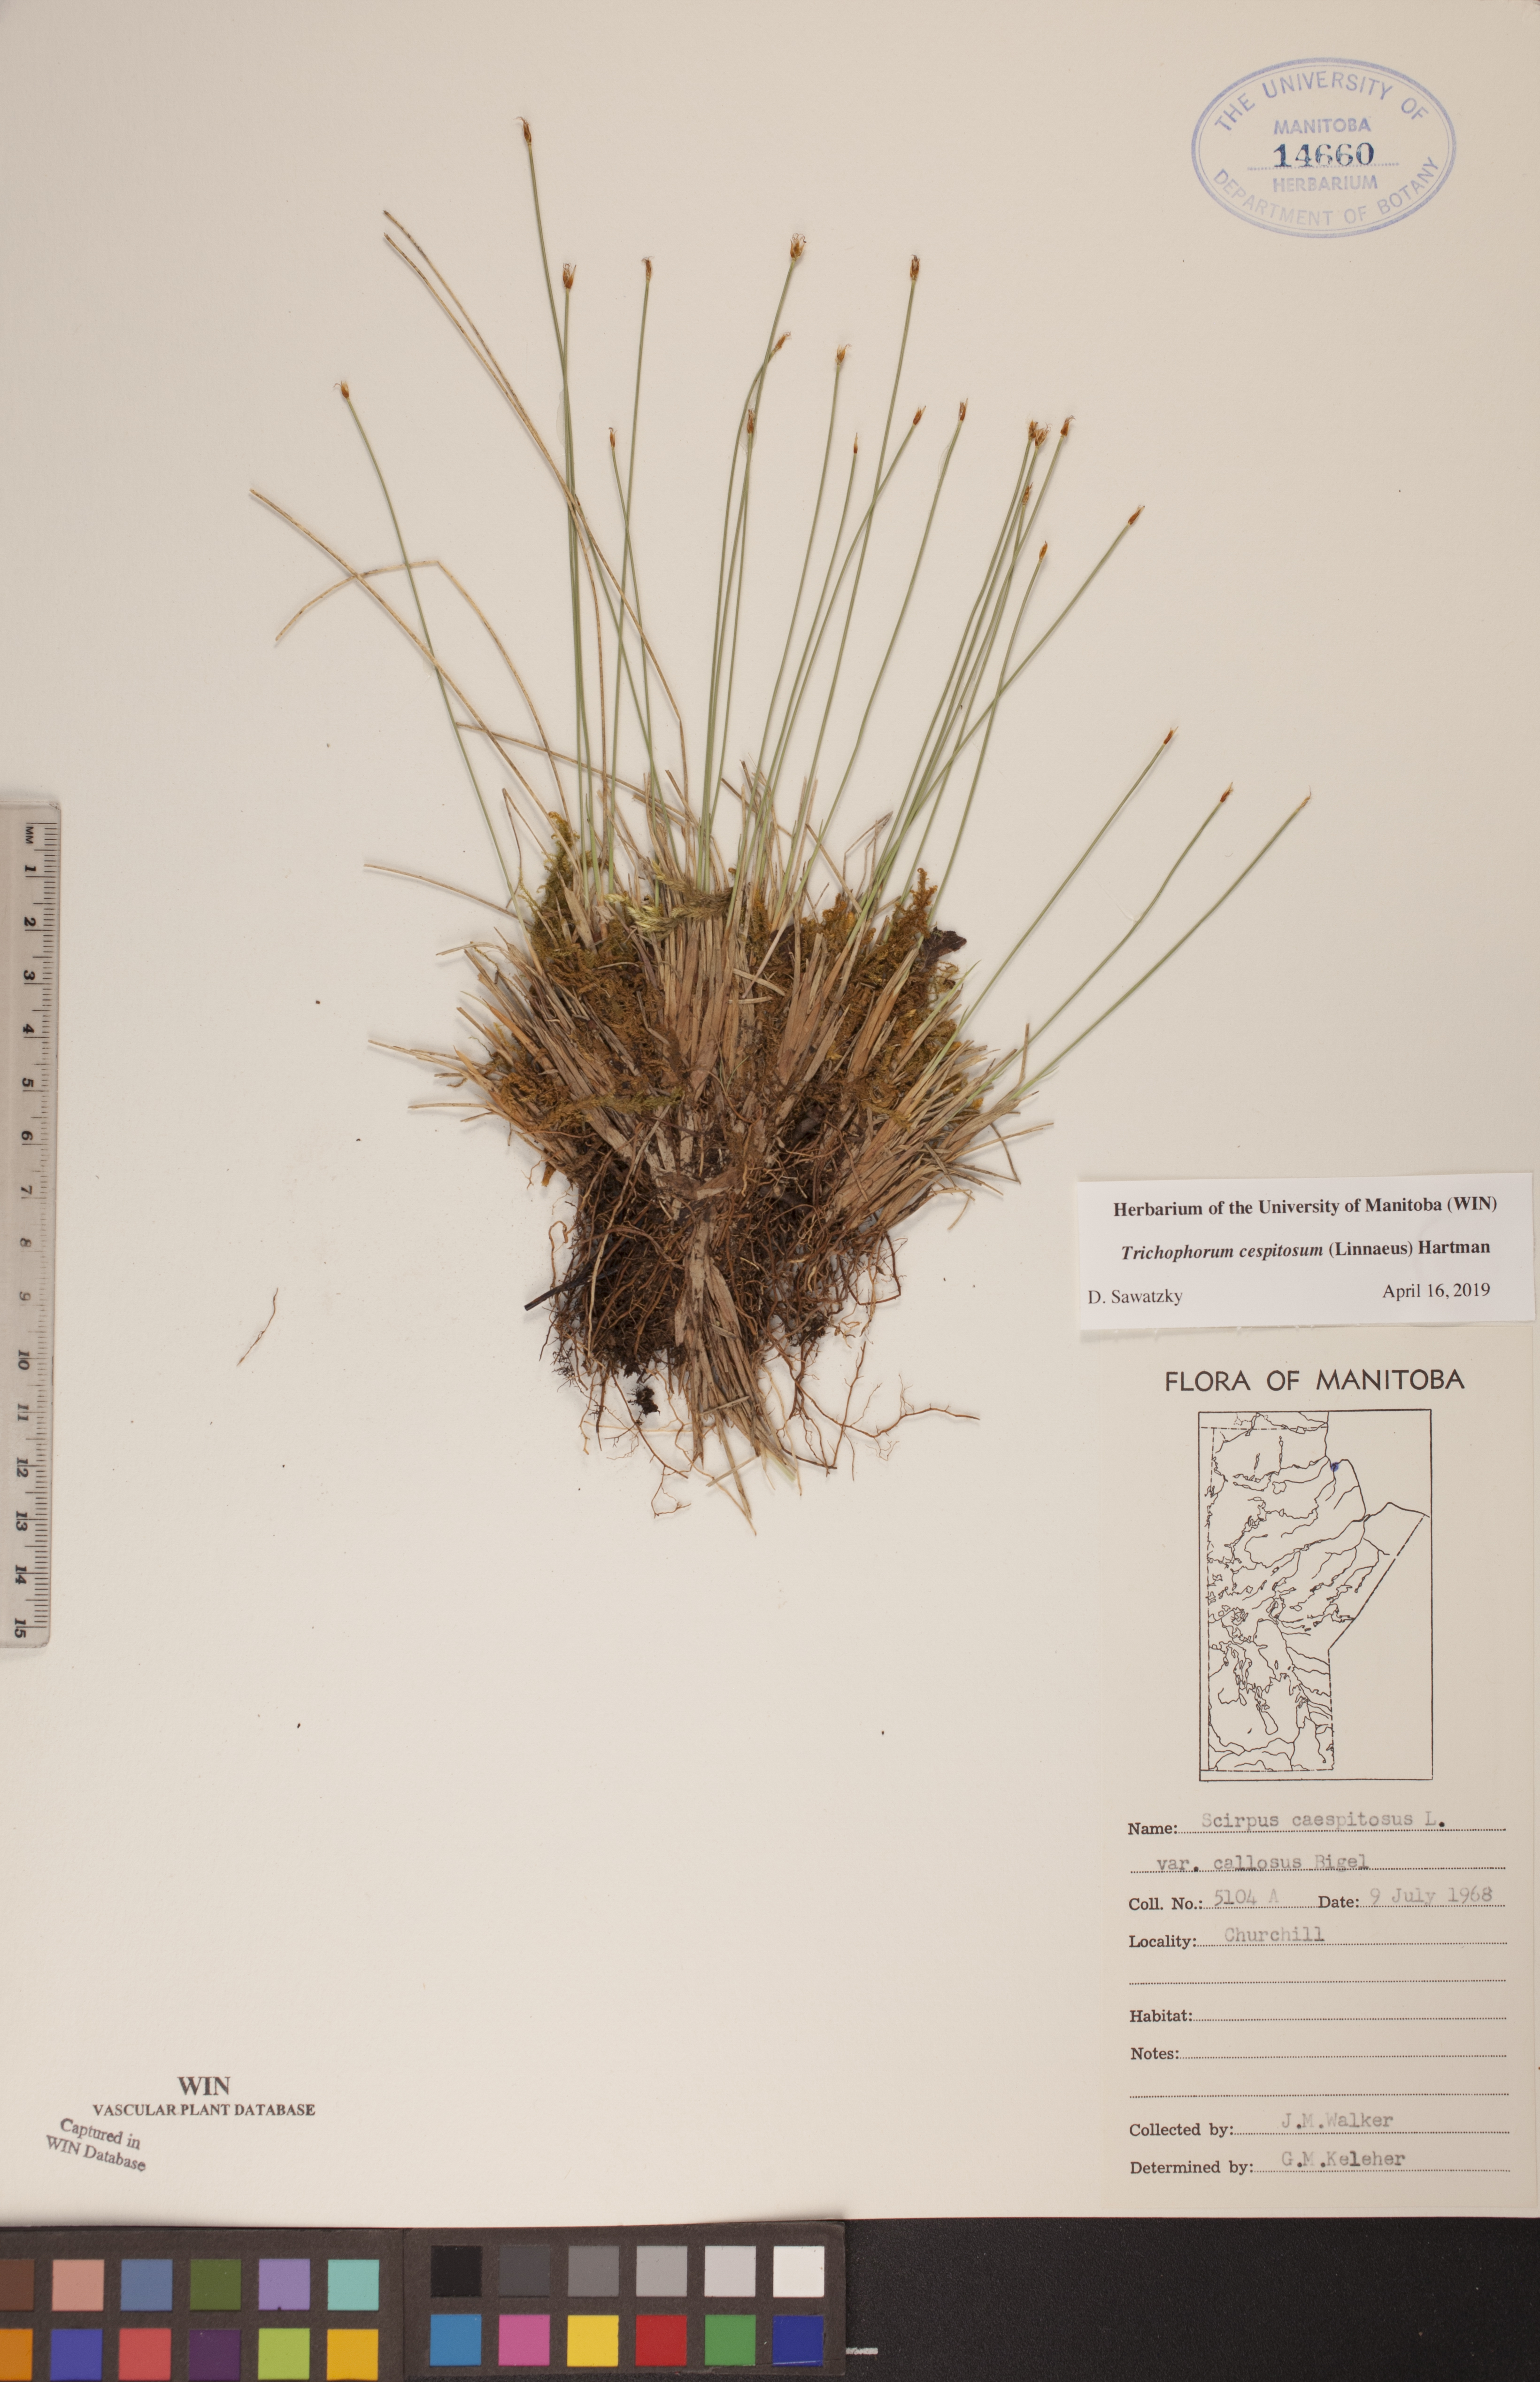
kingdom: Plantae
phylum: Tracheophyta
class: Liliopsida
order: Poales
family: Cyperaceae
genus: Trichophorum
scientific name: Trichophorum cespitosum
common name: Cespitose bulrush
